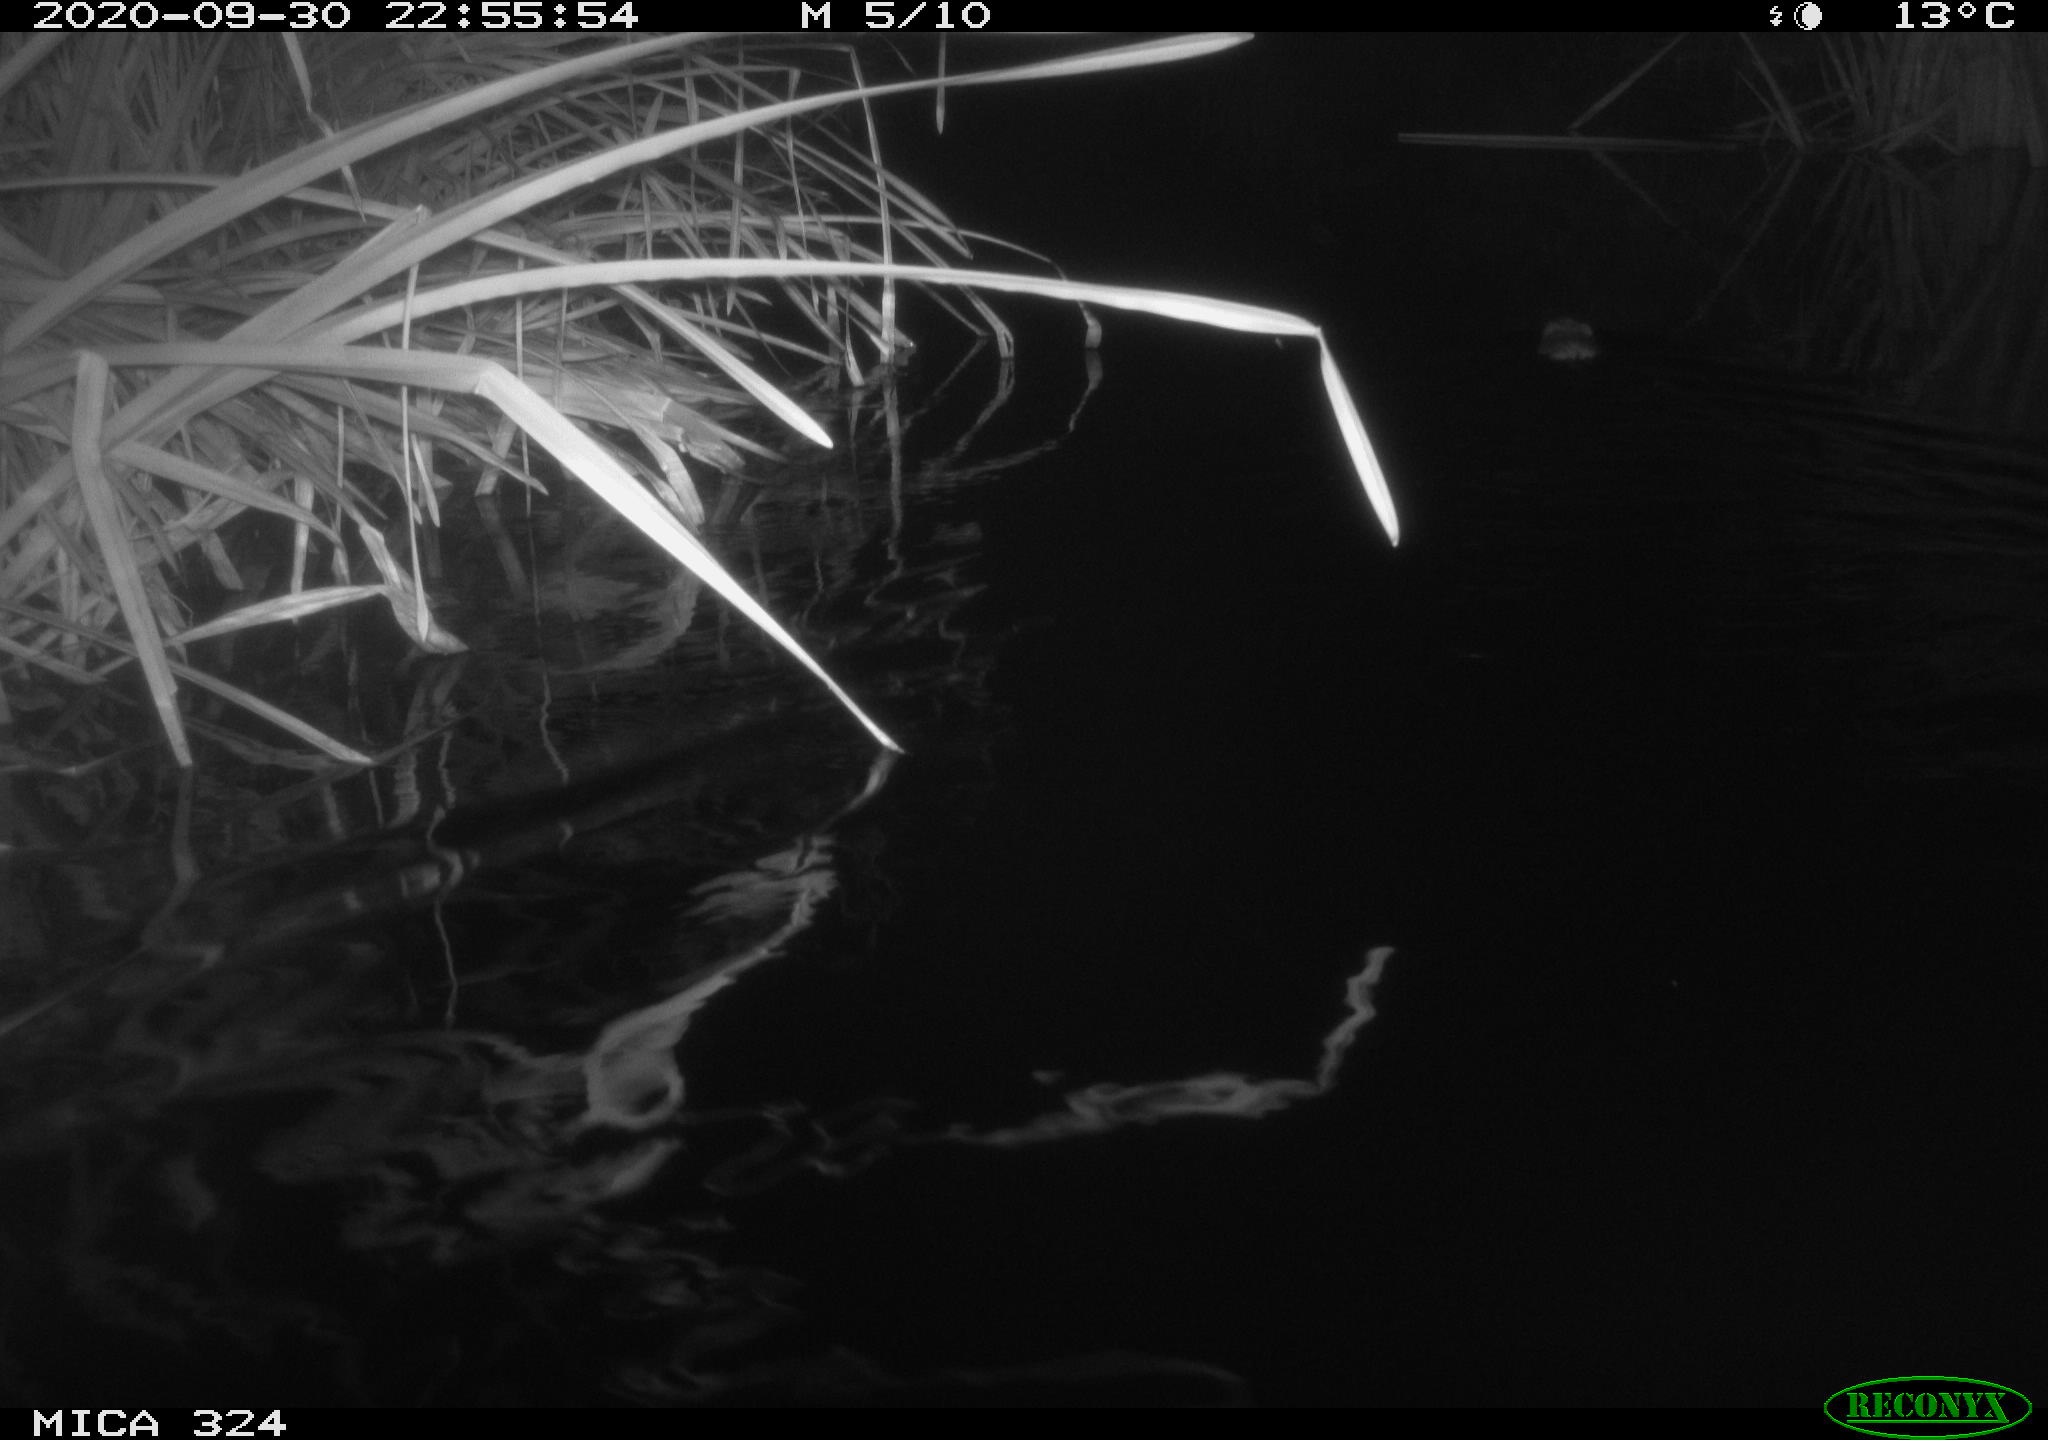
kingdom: Animalia
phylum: Chordata
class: Mammalia
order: Rodentia
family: Cricetidae
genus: Ondatra
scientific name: Ondatra zibethicus
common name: Muskrat
